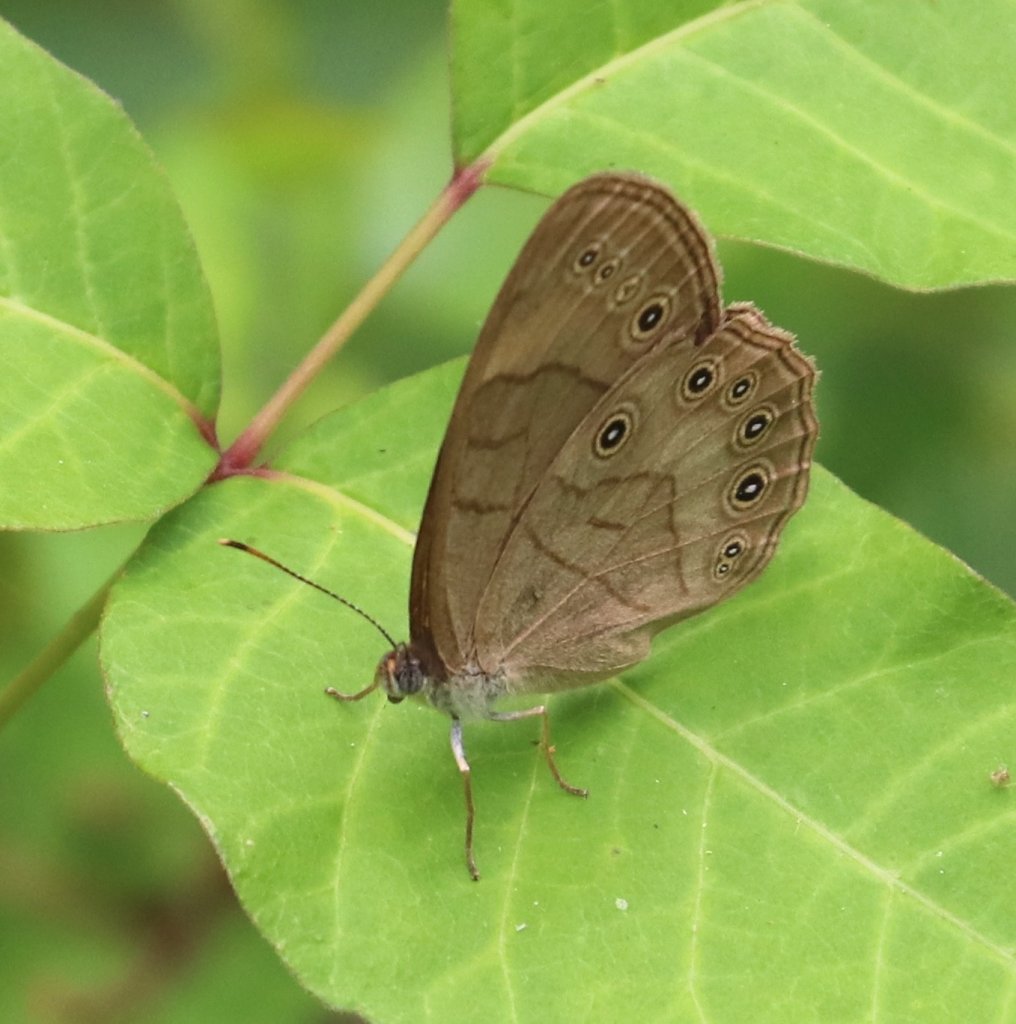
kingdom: Animalia
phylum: Arthropoda
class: Insecta
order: Lepidoptera
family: Nymphalidae
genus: Lethe
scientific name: Lethe eurydice
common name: Appalachian Eyed Brown
